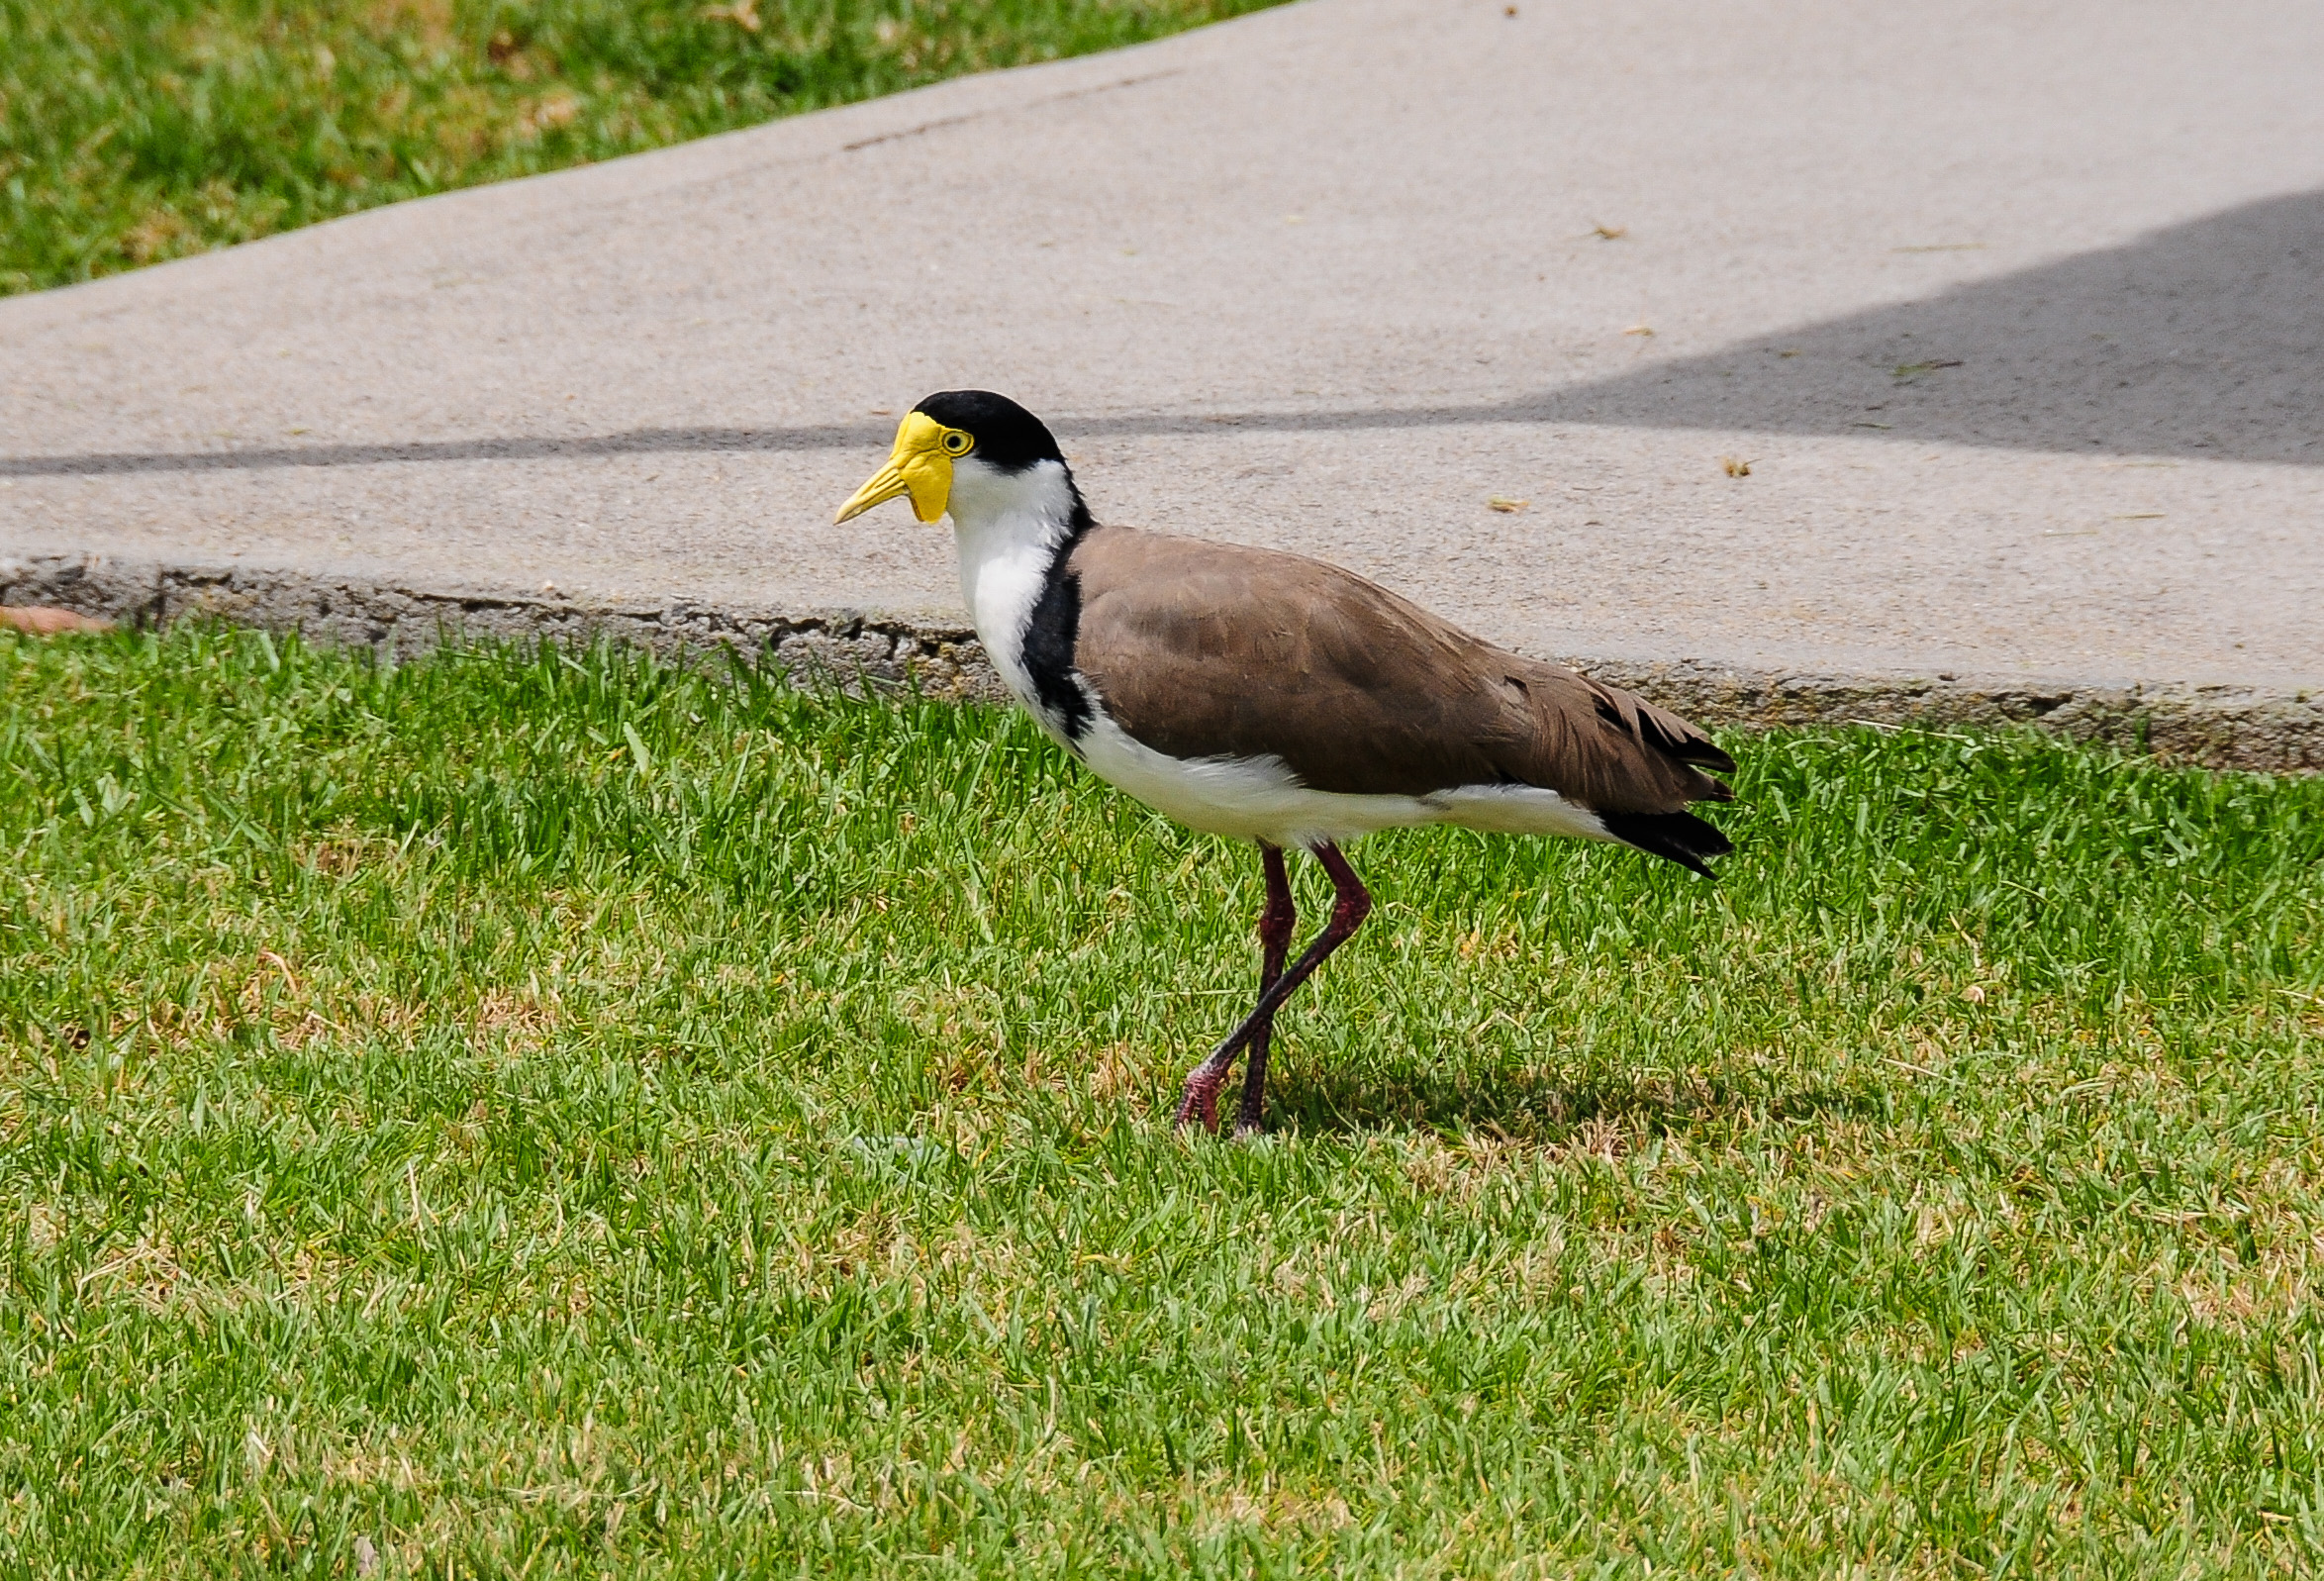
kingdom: Animalia
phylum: Chordata
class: Aves
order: Charadriiformes
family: Charadriidae
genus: Vanellus
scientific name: Vanellus miles
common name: Masked lapwing
